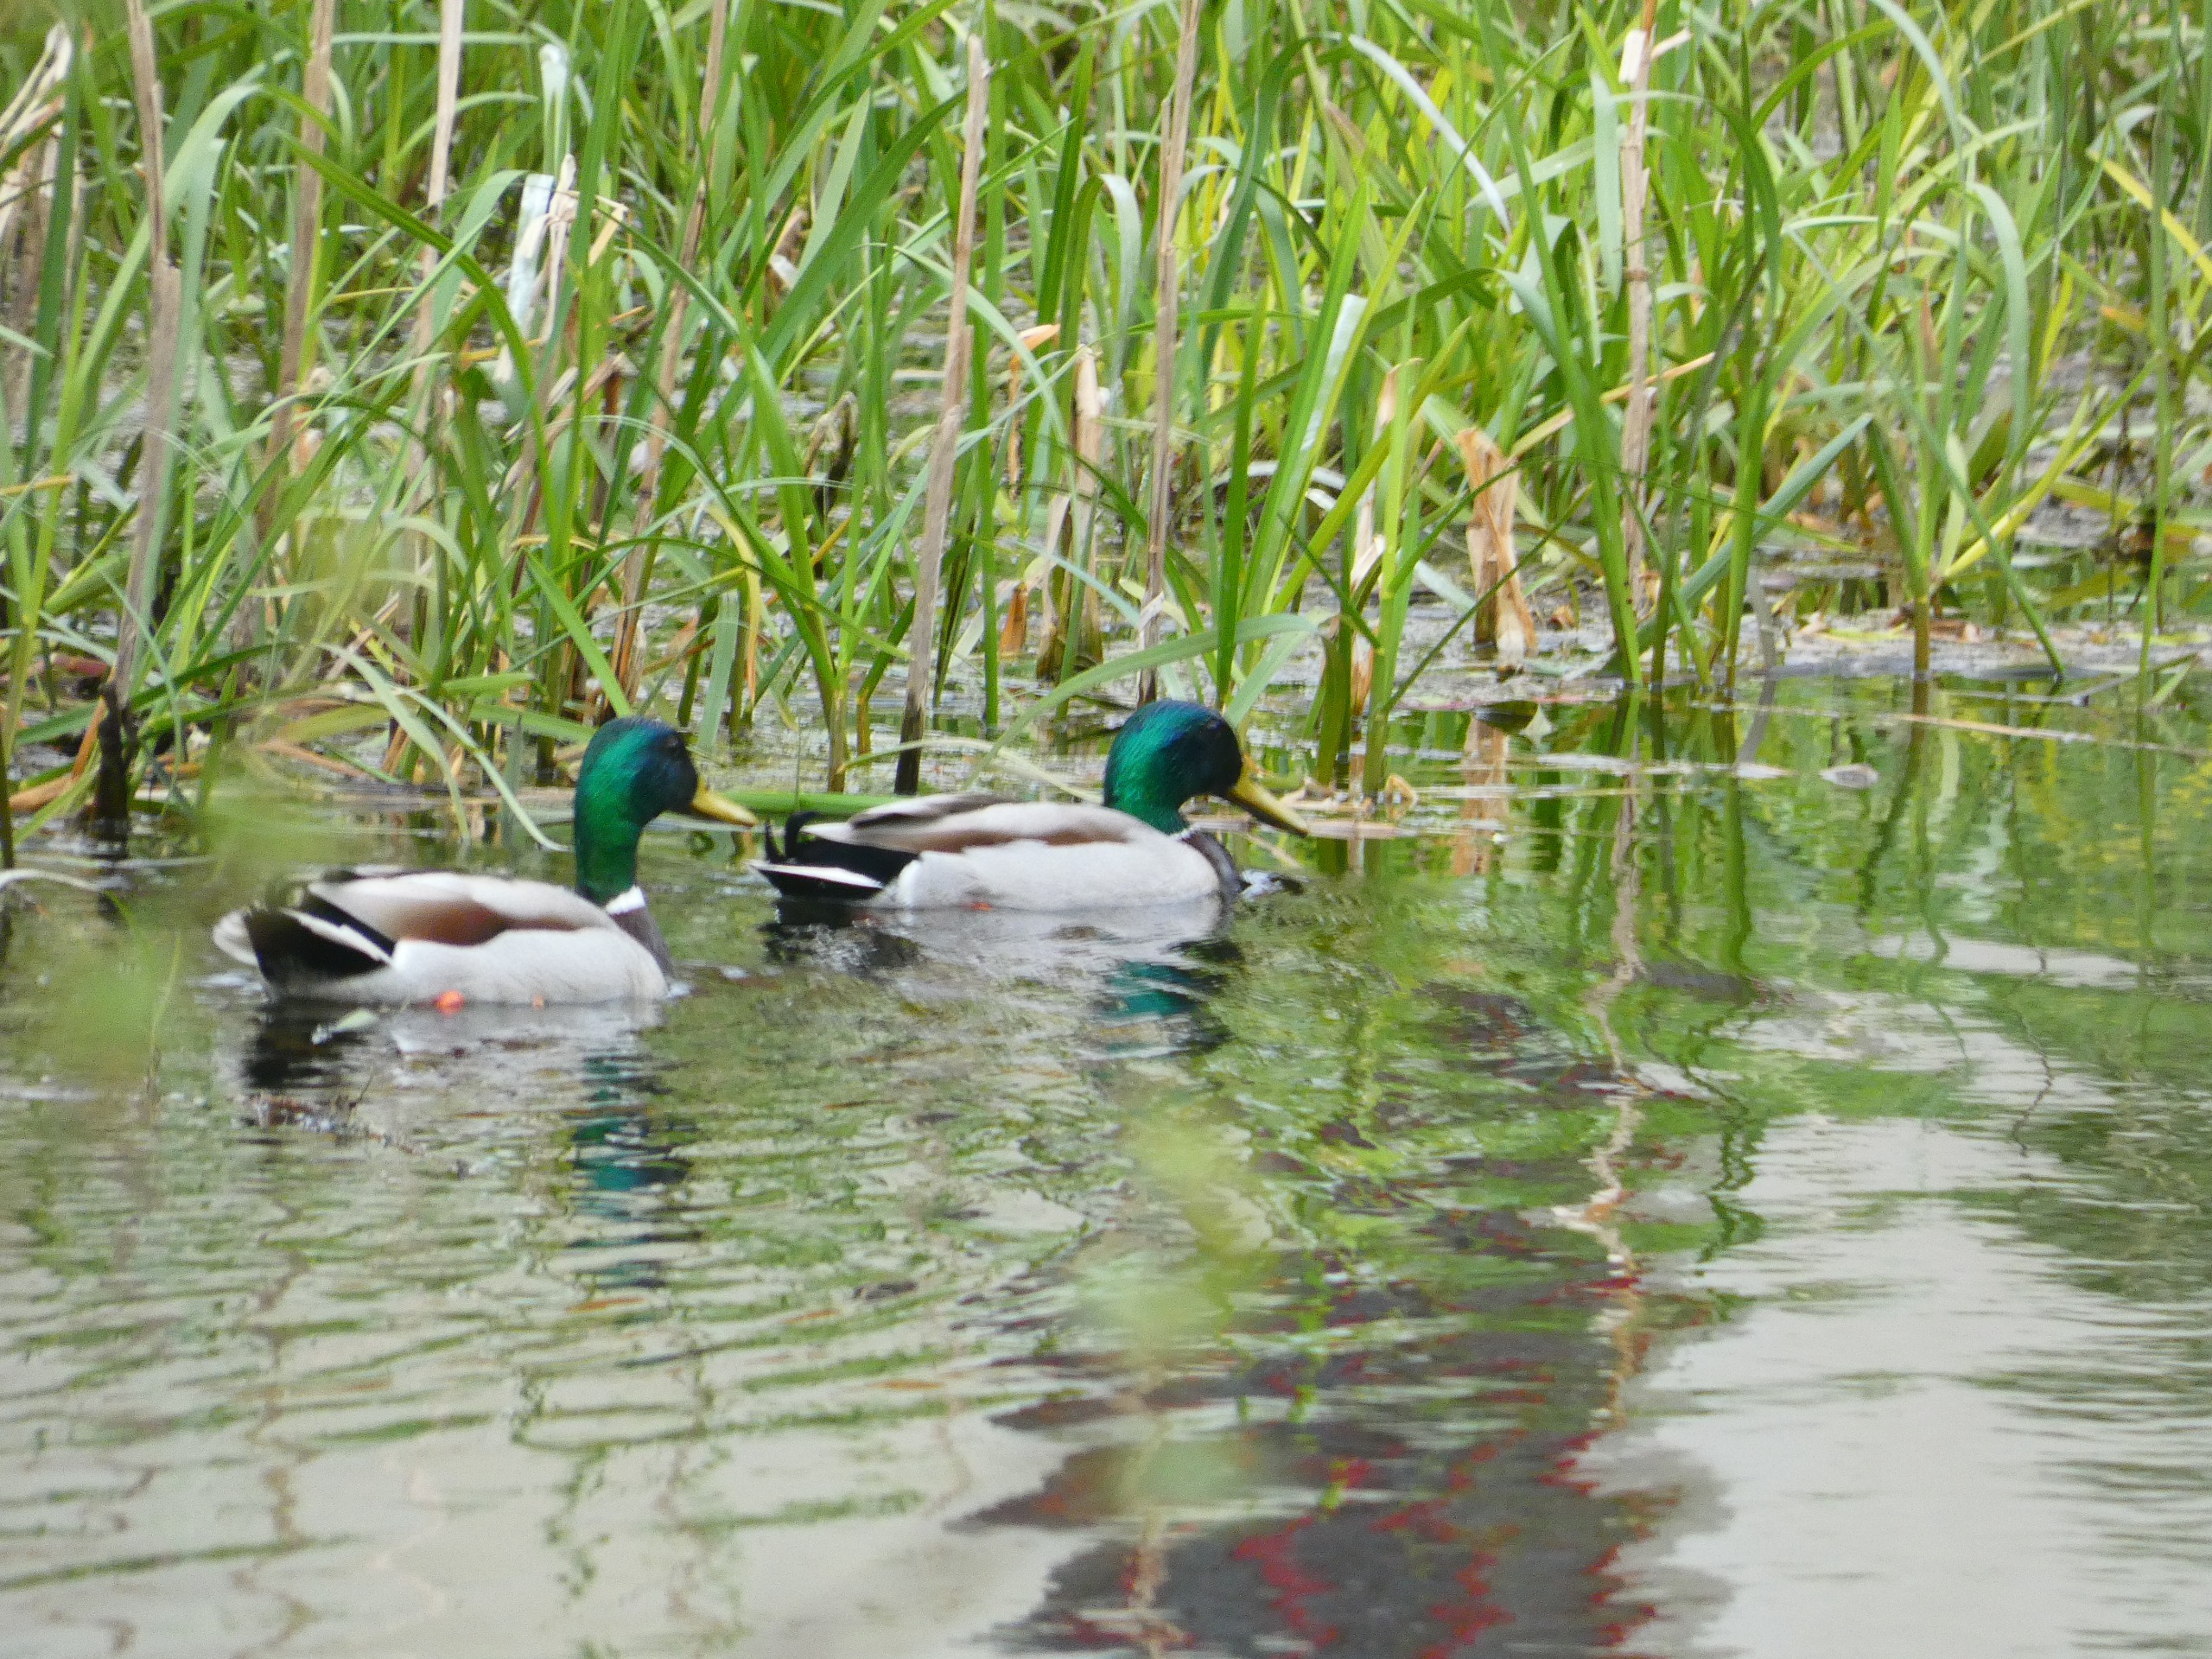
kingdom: Animalia
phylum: Chordata
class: Aves
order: Anseriformes
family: Anatidae
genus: Anas
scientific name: Anas platyrhynchos
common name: Gråand
